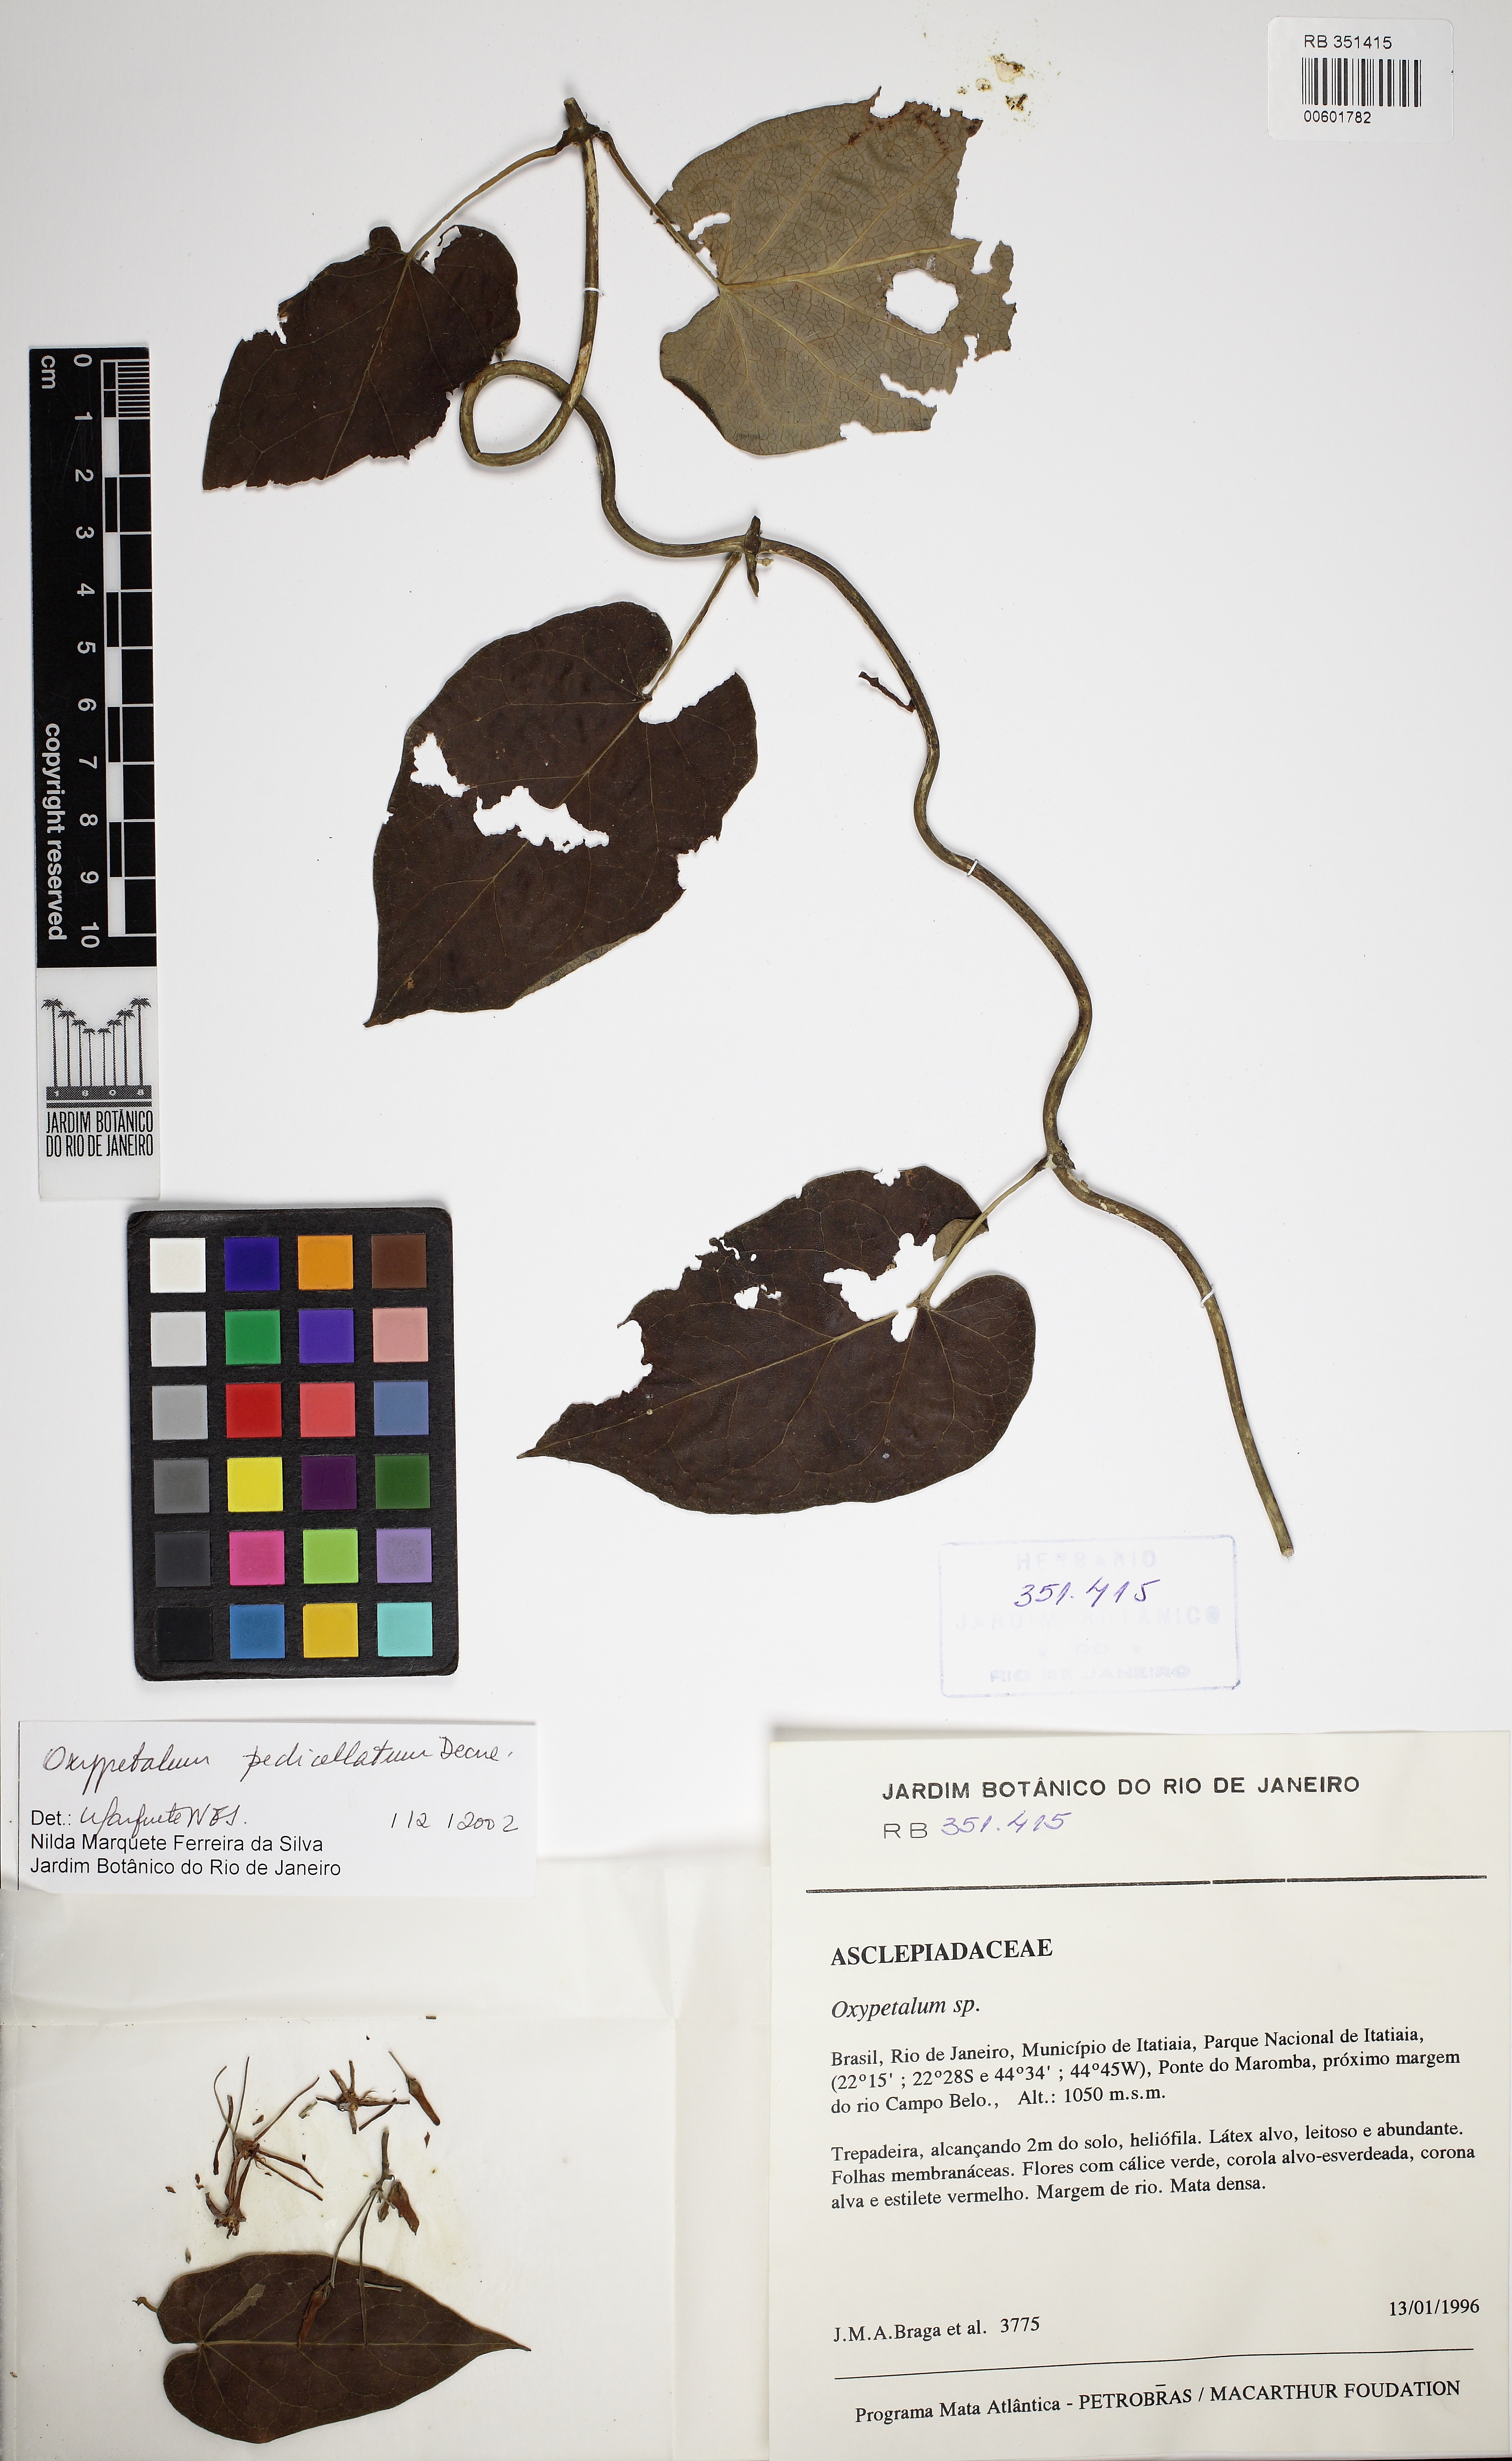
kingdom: Plantae
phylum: Tracheophyta
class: Magnoliopsida
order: Gentianales
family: Apocynaceae
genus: Oxypetalum
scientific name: Oxypetalum cordifolium
